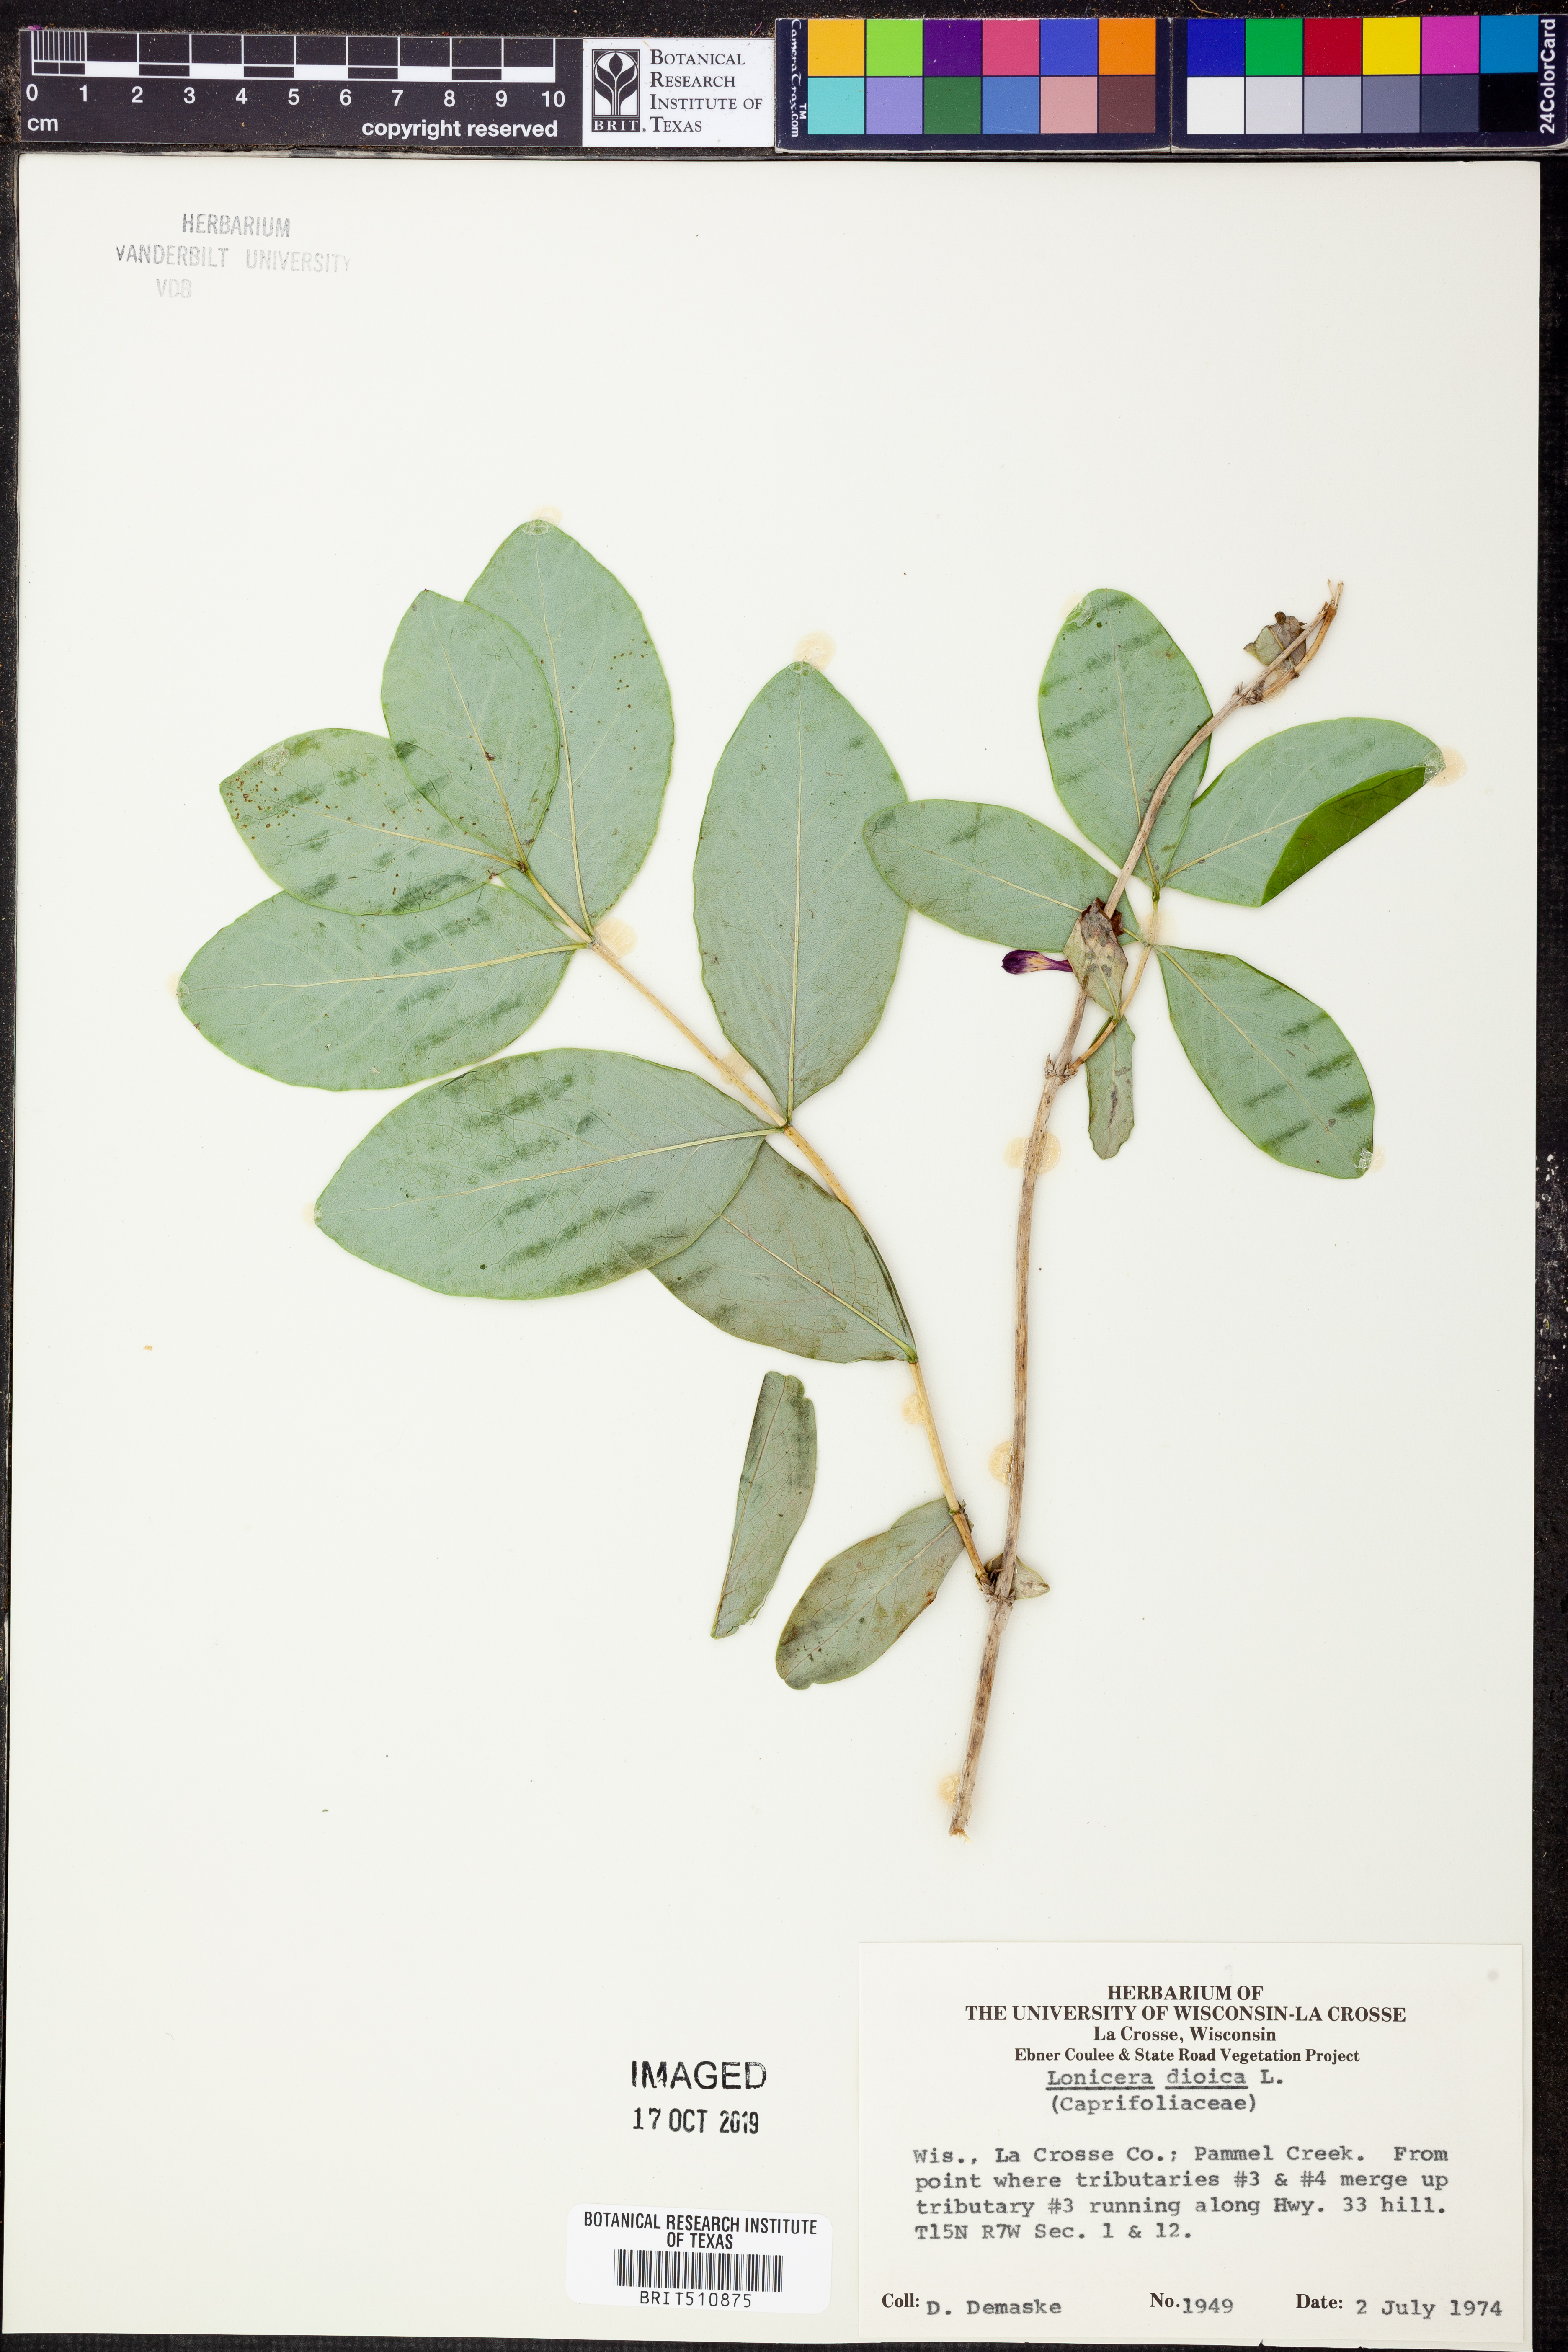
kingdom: Plantae
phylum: Tracheophyta
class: Magnoliopsida
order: Dipsacales
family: Caprifoliaceae
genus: Lonicera
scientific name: Lonicera dioica
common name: Limber honeysuckle
